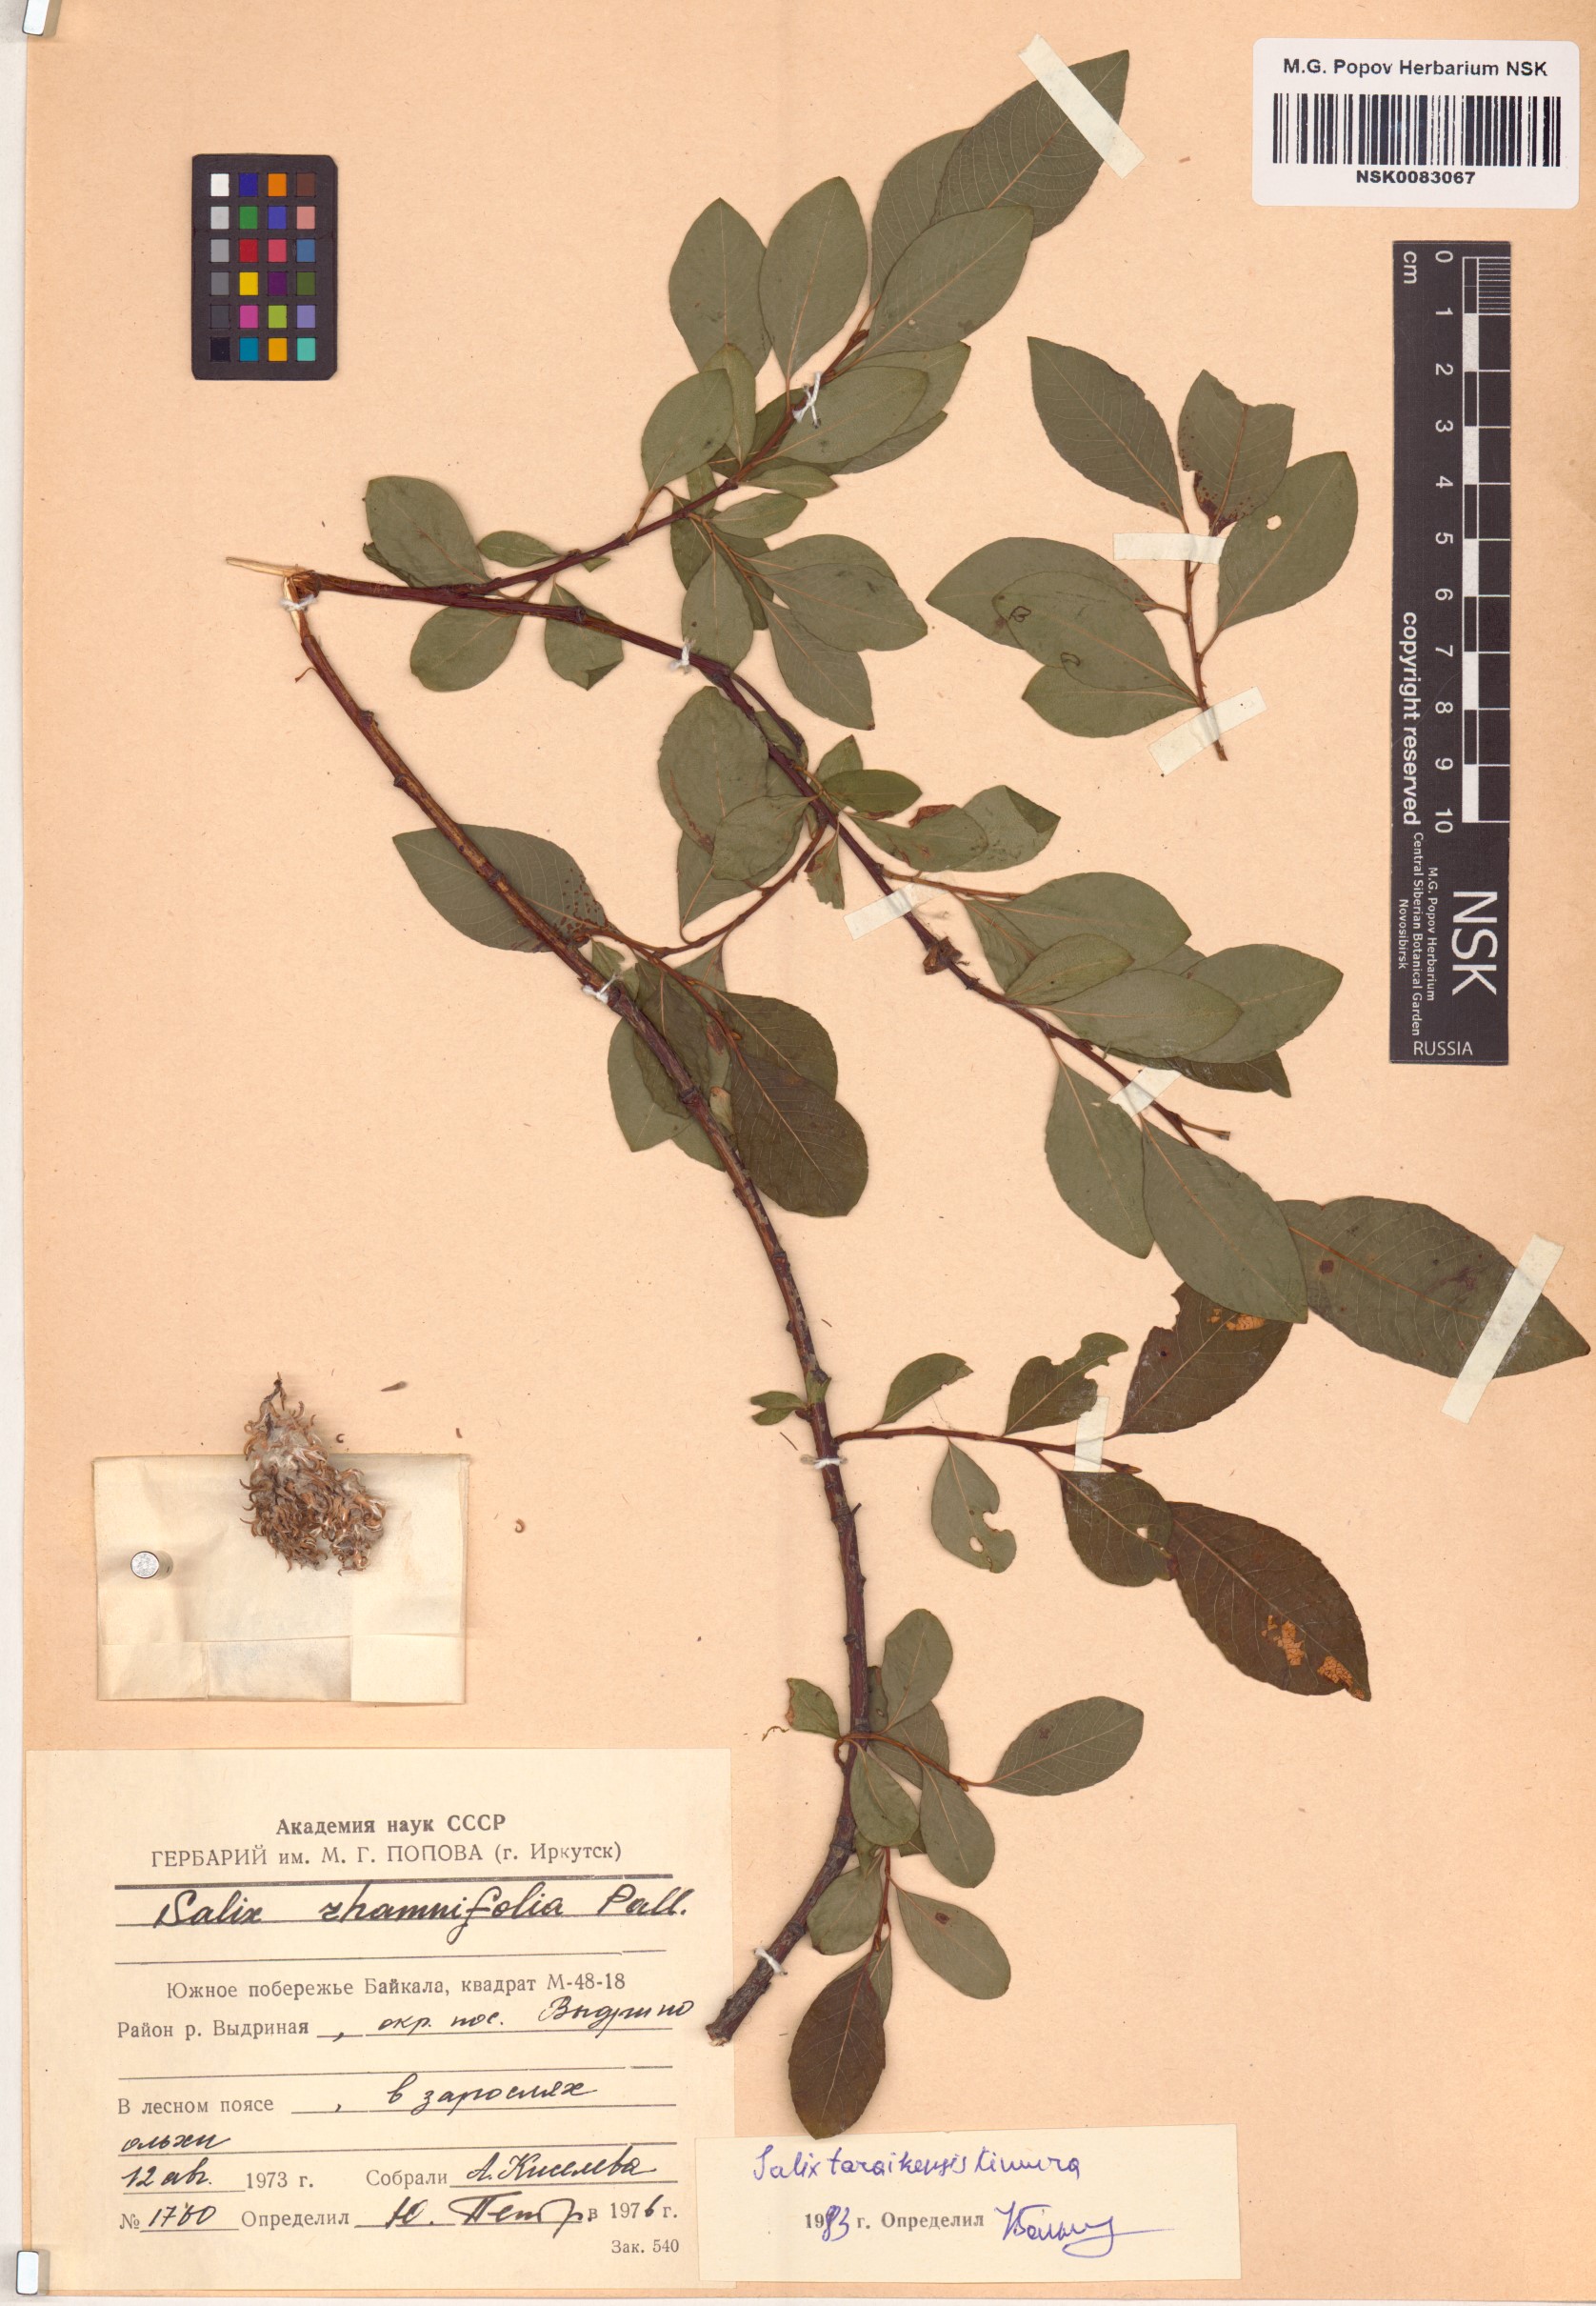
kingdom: Plantae
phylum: Tracheophyta
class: Magnoliopsida
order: Malpighiales
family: Salicaceae
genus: Salix
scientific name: Salix taraikensis
